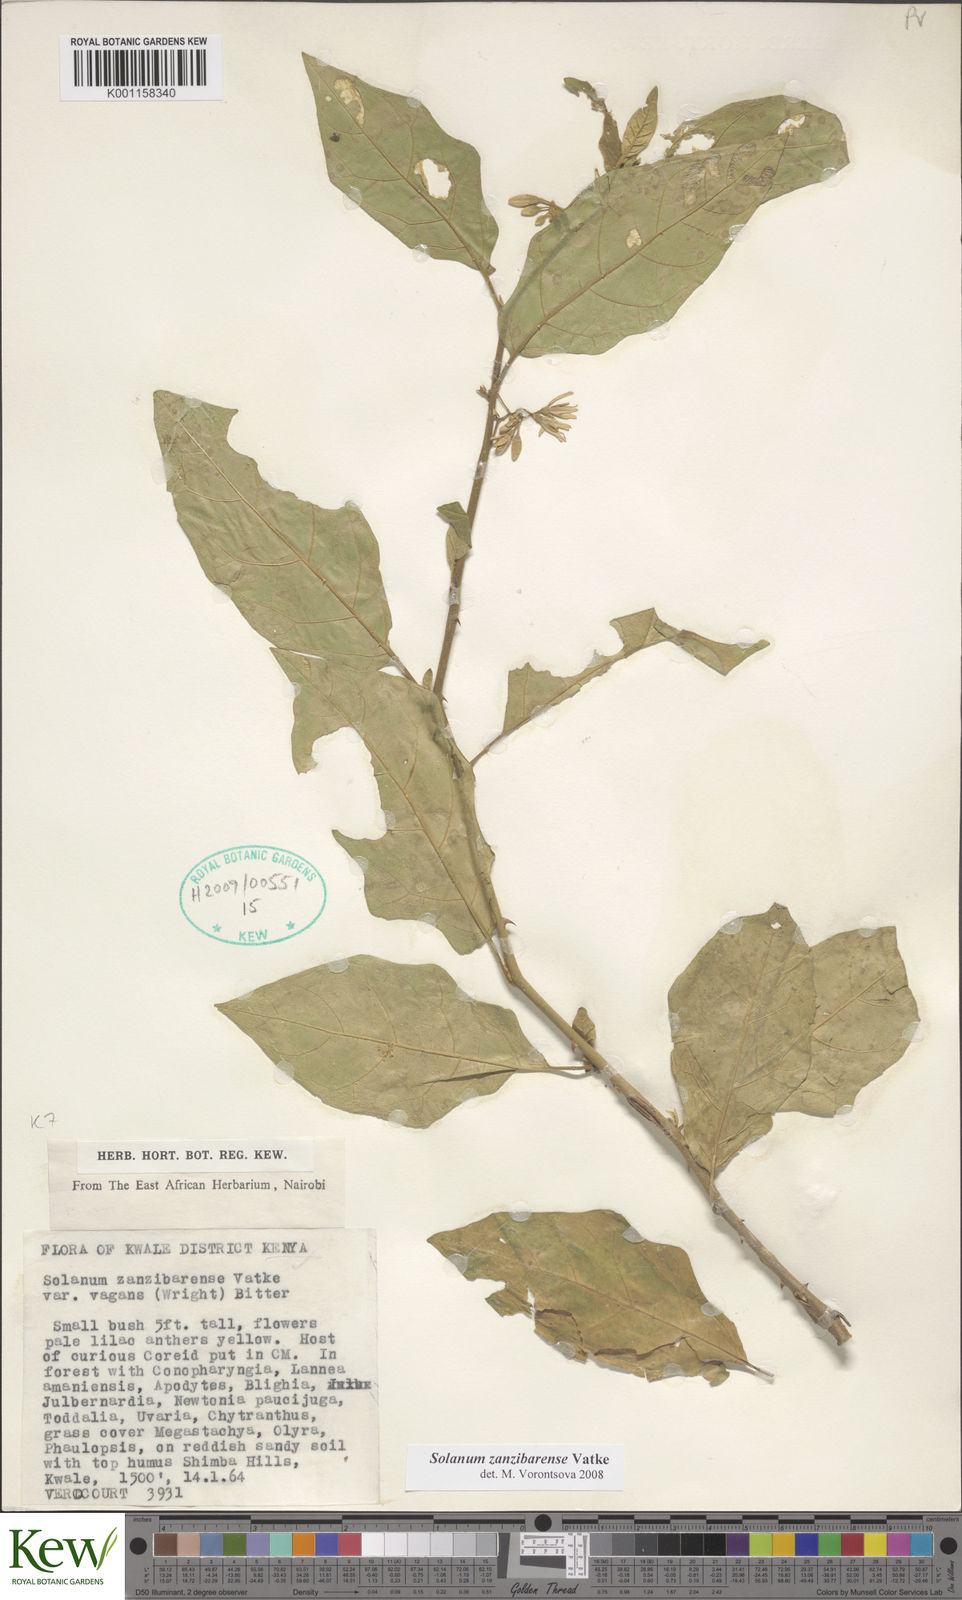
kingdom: Plantae
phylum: Tracheophyta
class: Magnoliopsida
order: Solanales
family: Solanaceae
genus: Solanum
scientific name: Solanum zanzibarense
